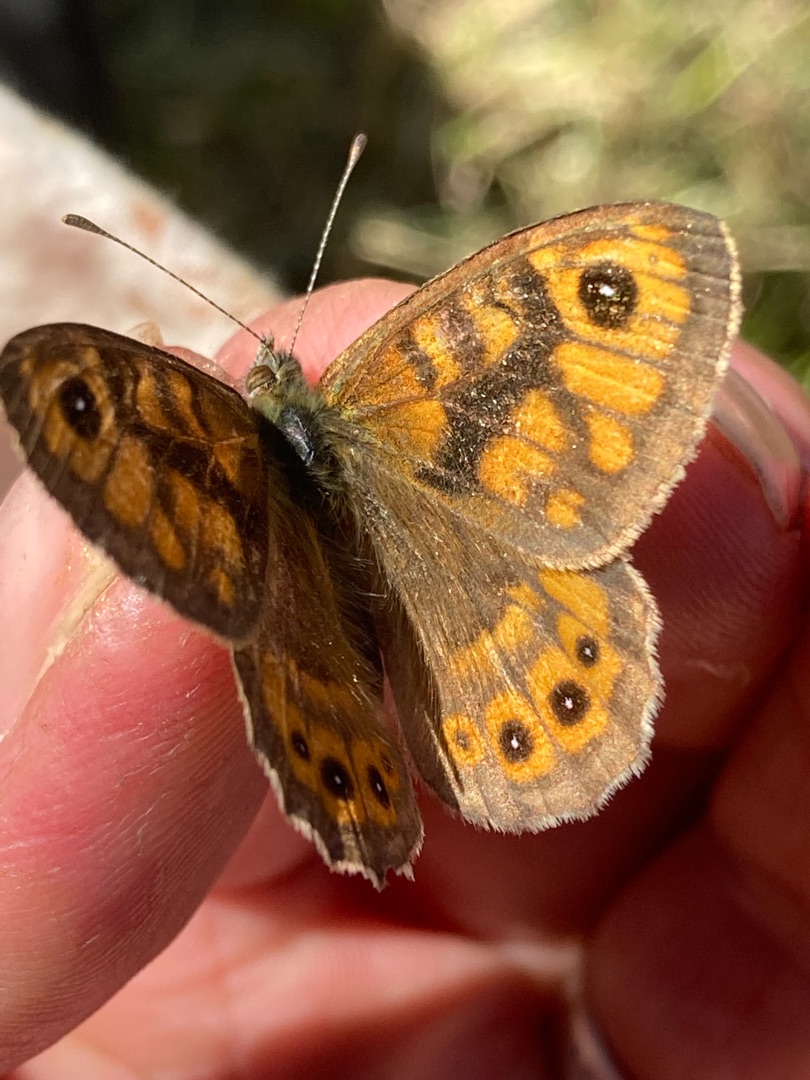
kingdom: Animalia
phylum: Arthropoda
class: Insecta
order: Lepidoptera
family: Nymphalidae
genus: Pararge
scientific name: Pararge Lasiommata megera
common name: Vejrandøje
